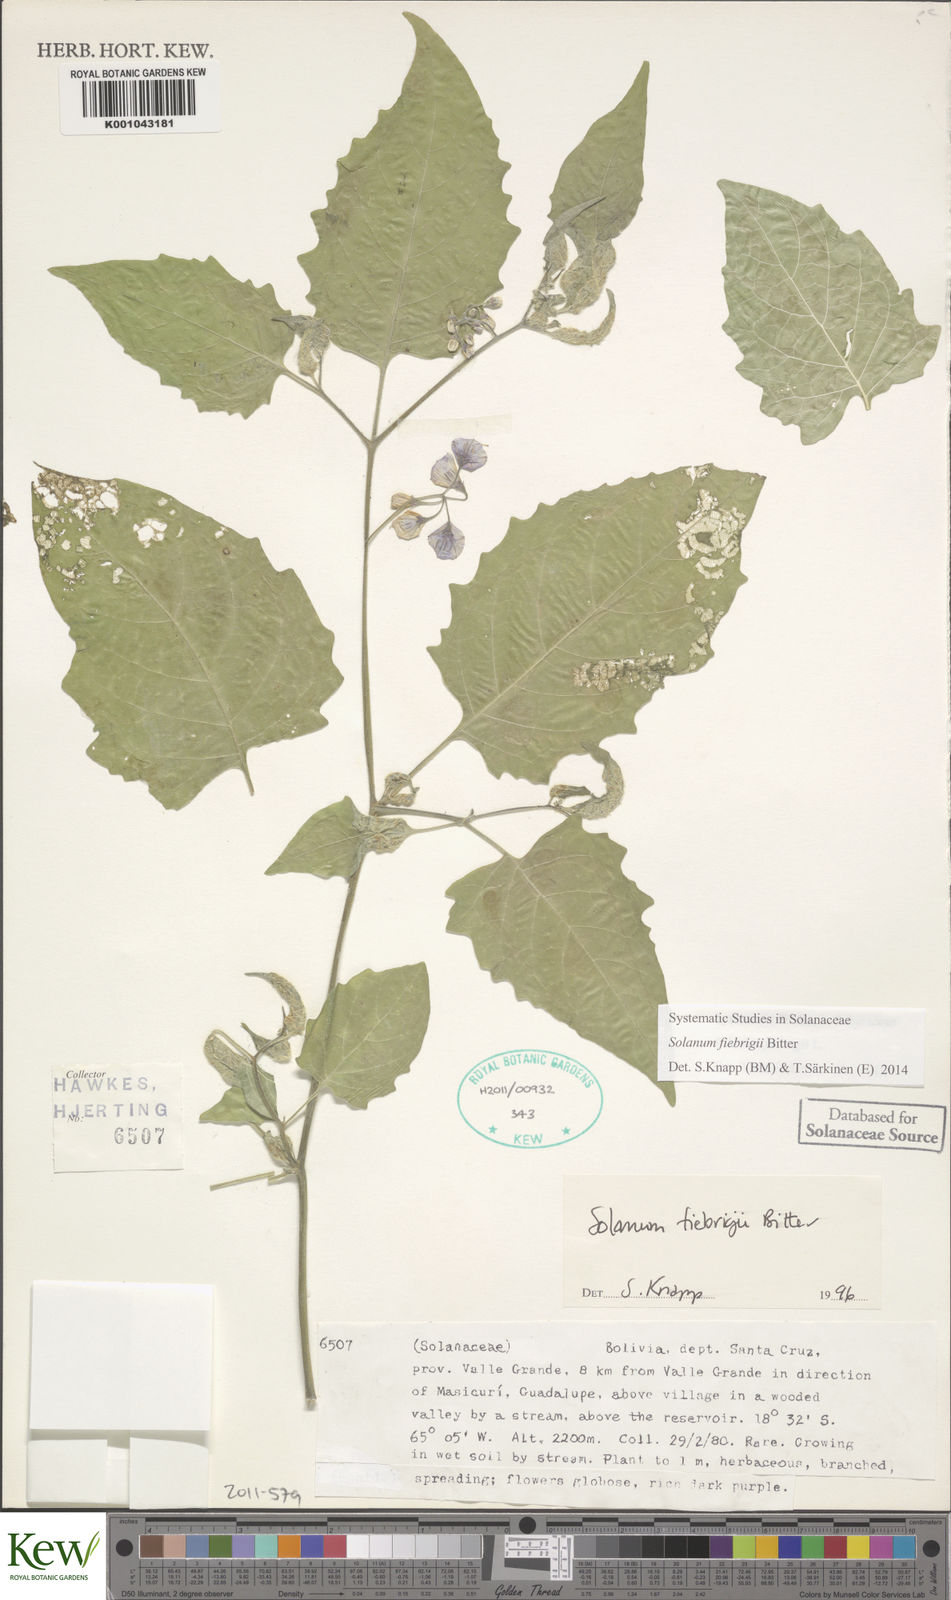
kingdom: Plantae
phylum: Tracheophyta
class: Magnoliopsida
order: Solanales
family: Solanaceae
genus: Solanum
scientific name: Solanum fiebrigii
